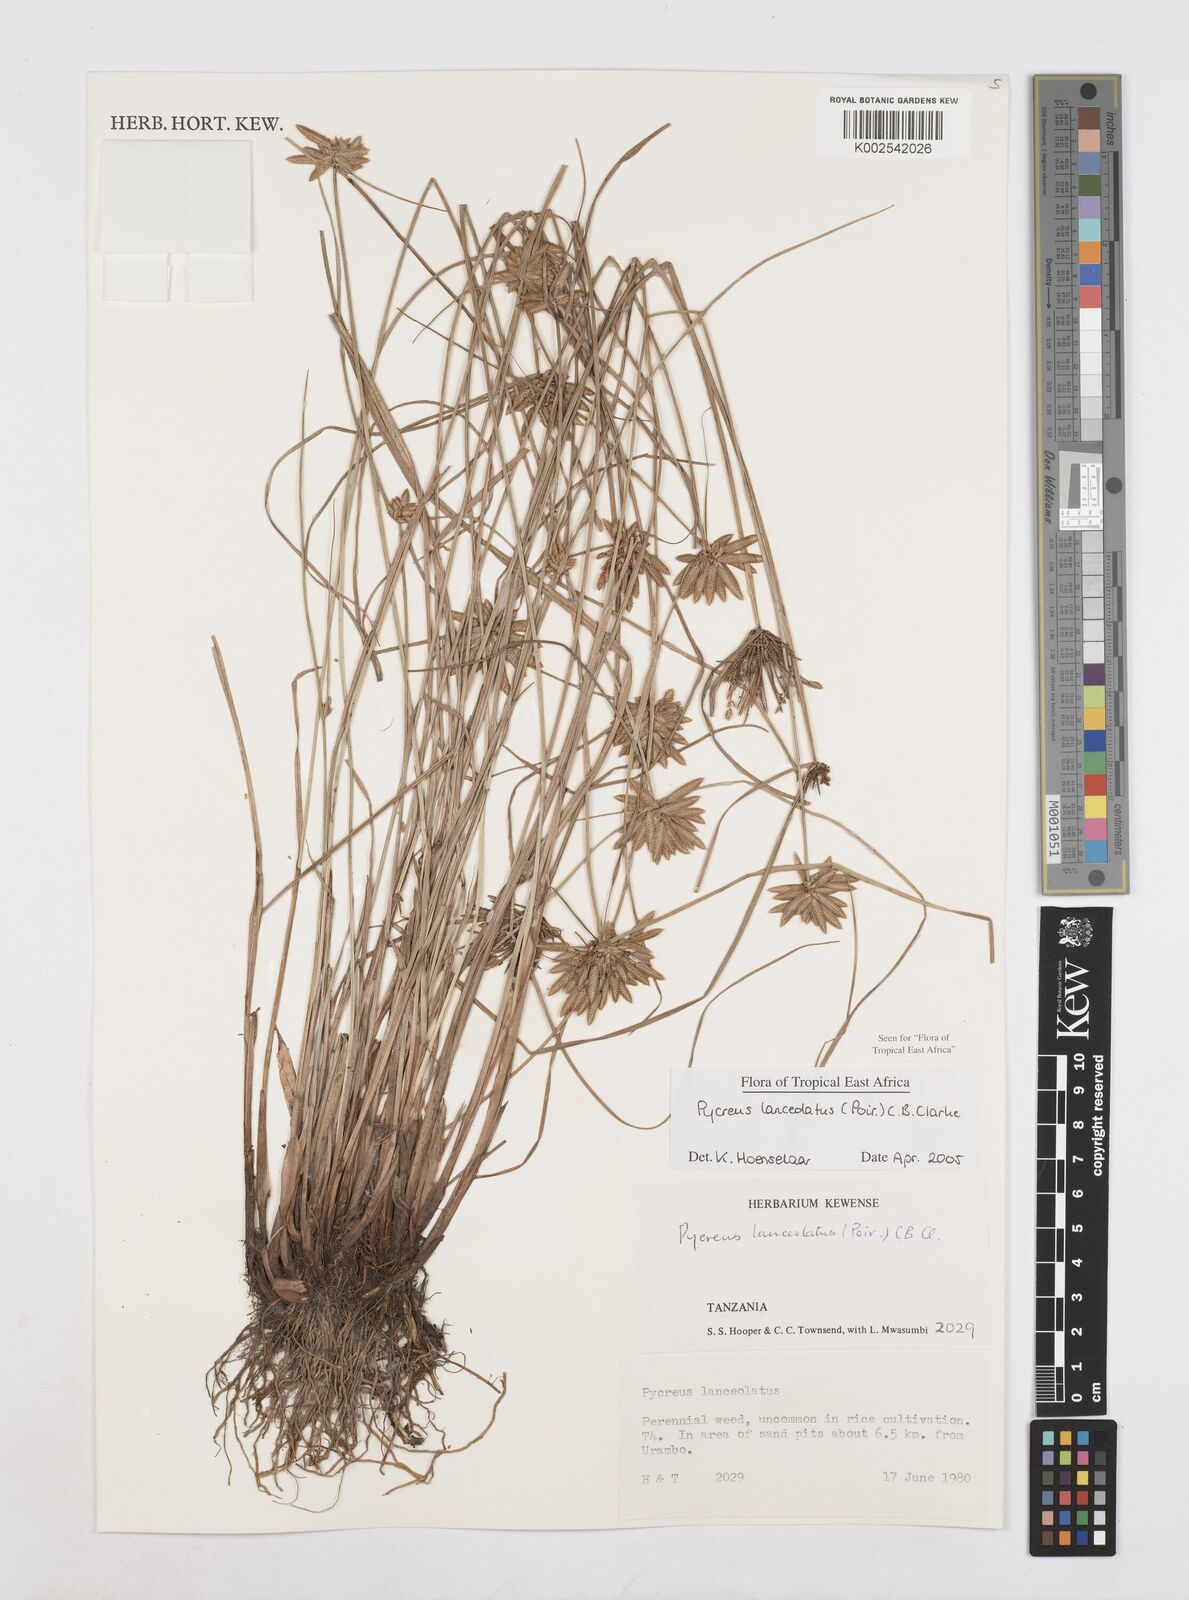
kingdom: Plantae
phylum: Tracheophyta
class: Liliopsida
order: Poales
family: Cyperaceae
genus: Cyperus
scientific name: Cyperus lanceolatus
